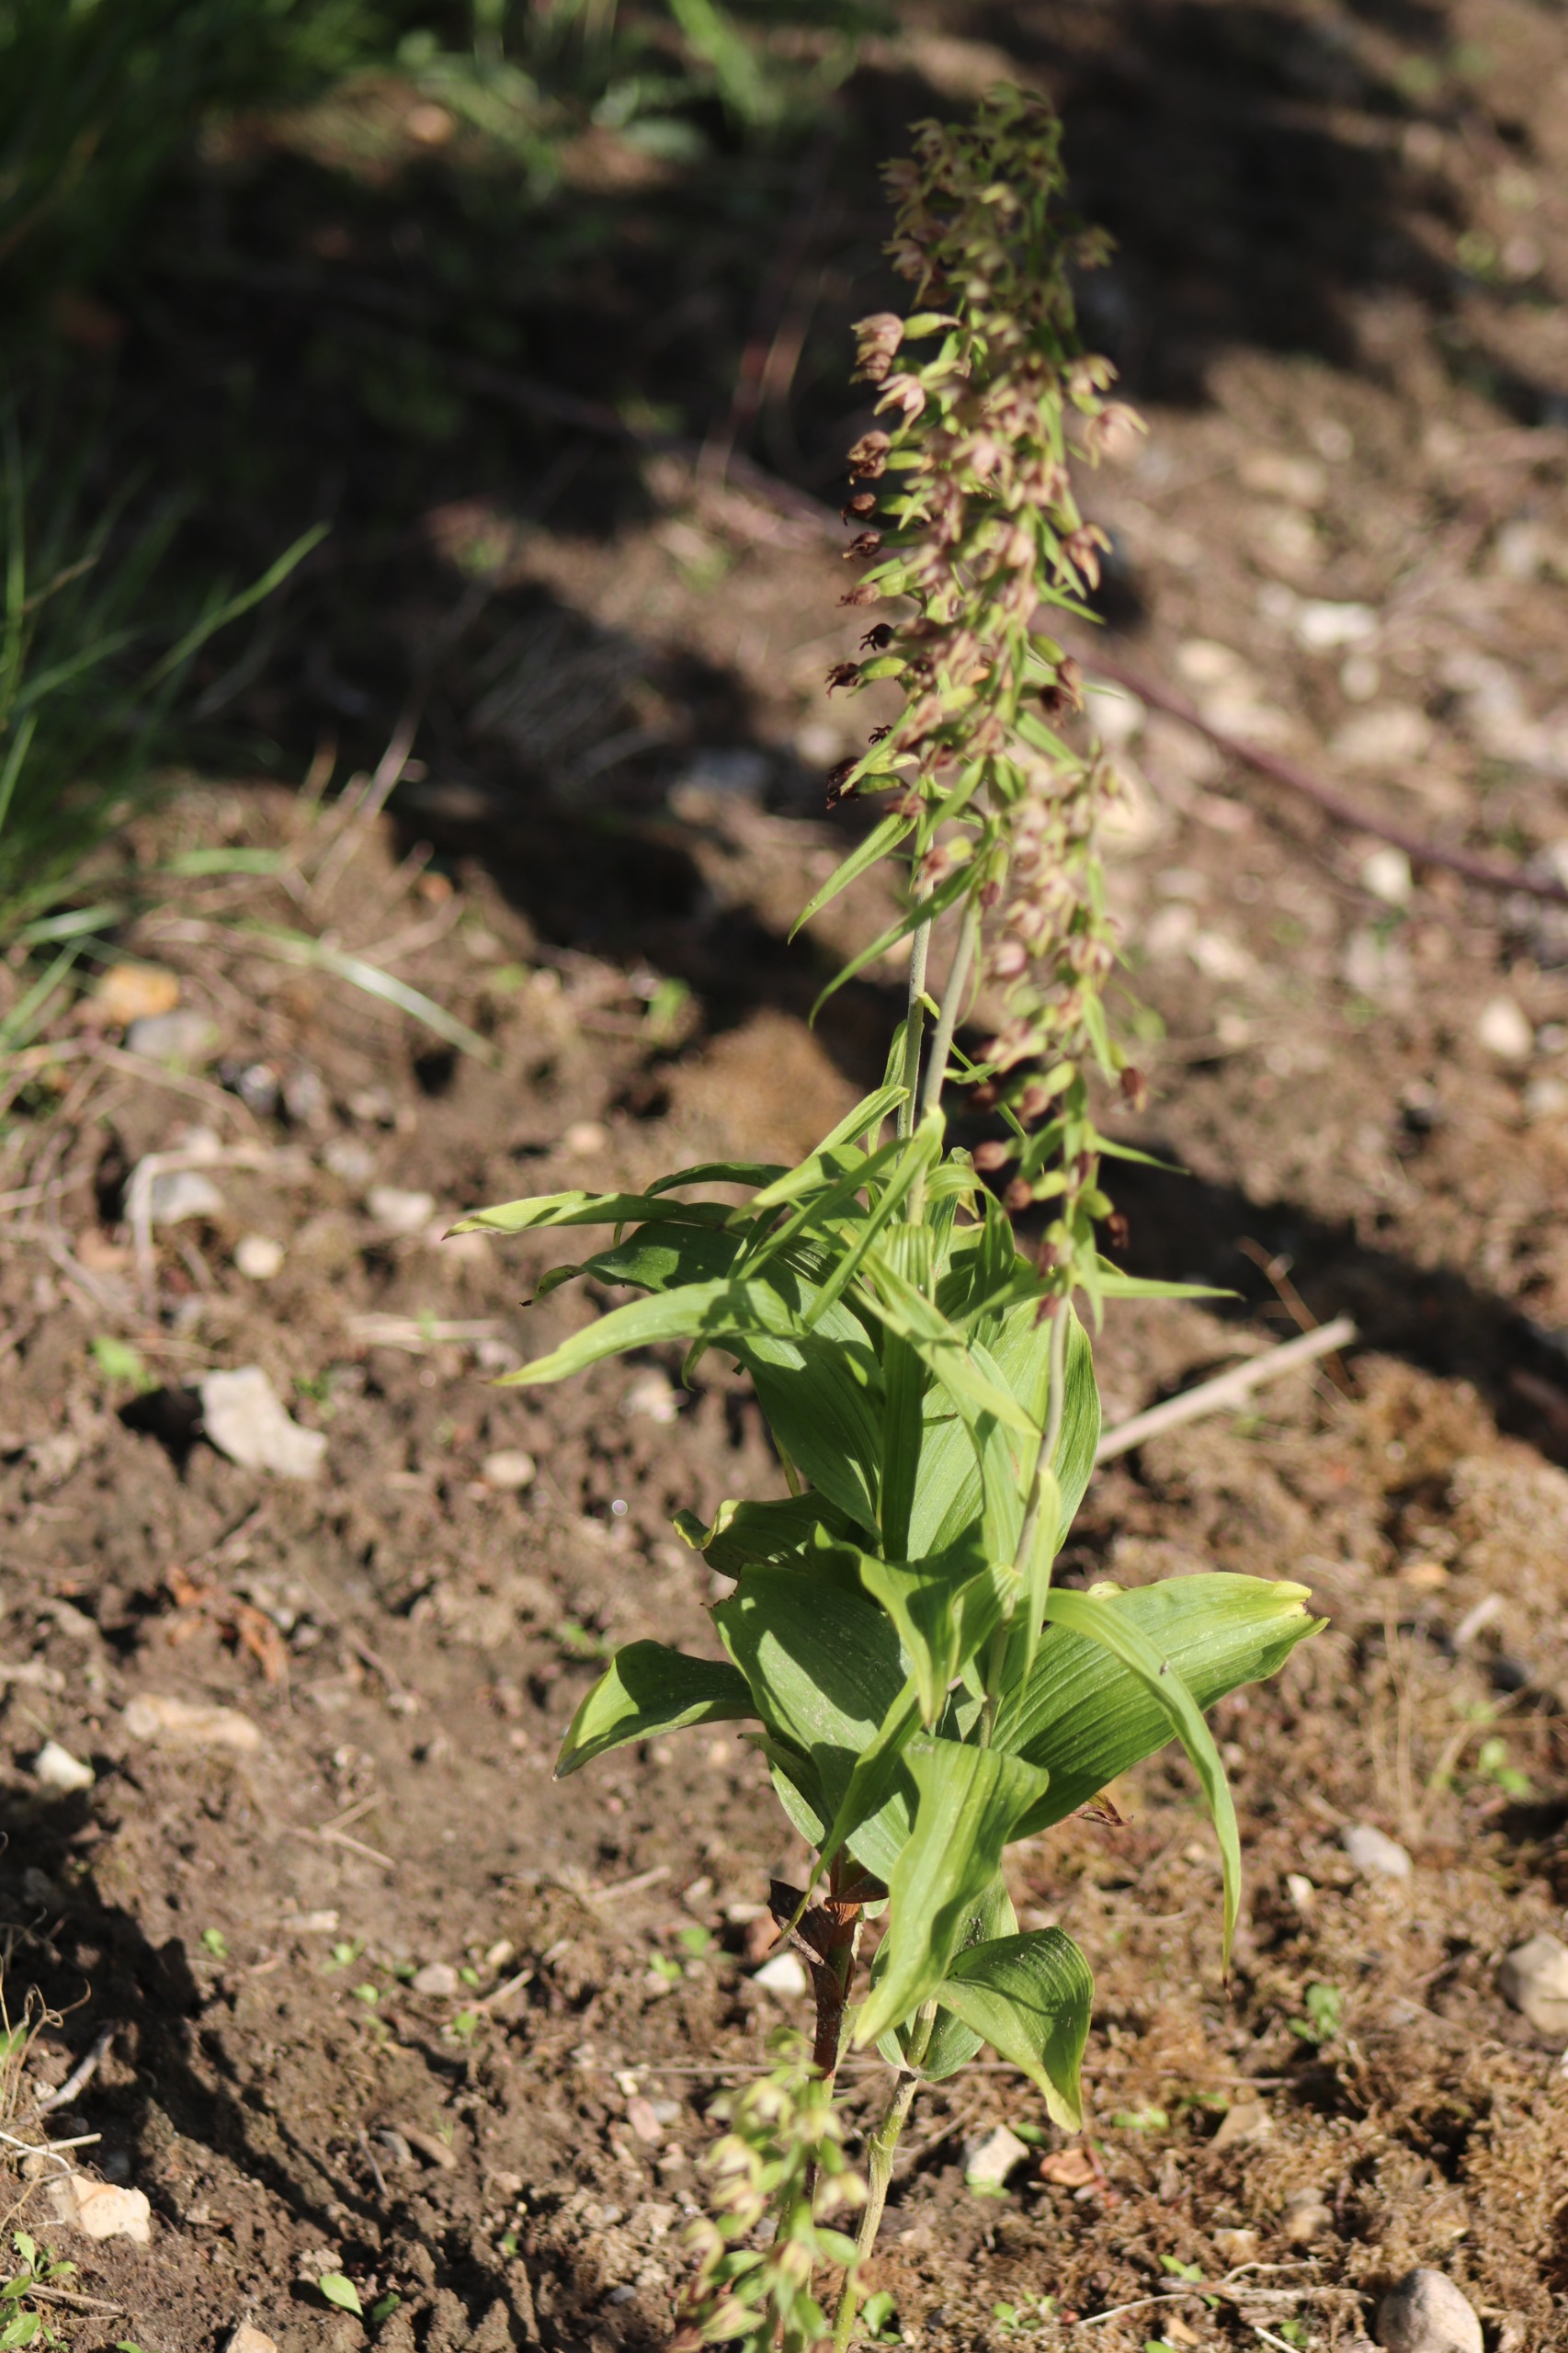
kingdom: Plantae
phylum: Tracheophyta
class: Liliopsida
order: Asparagales
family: Orchidaceae
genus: Epipactis
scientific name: Epipactis helleborine
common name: Skov-hullæbe
